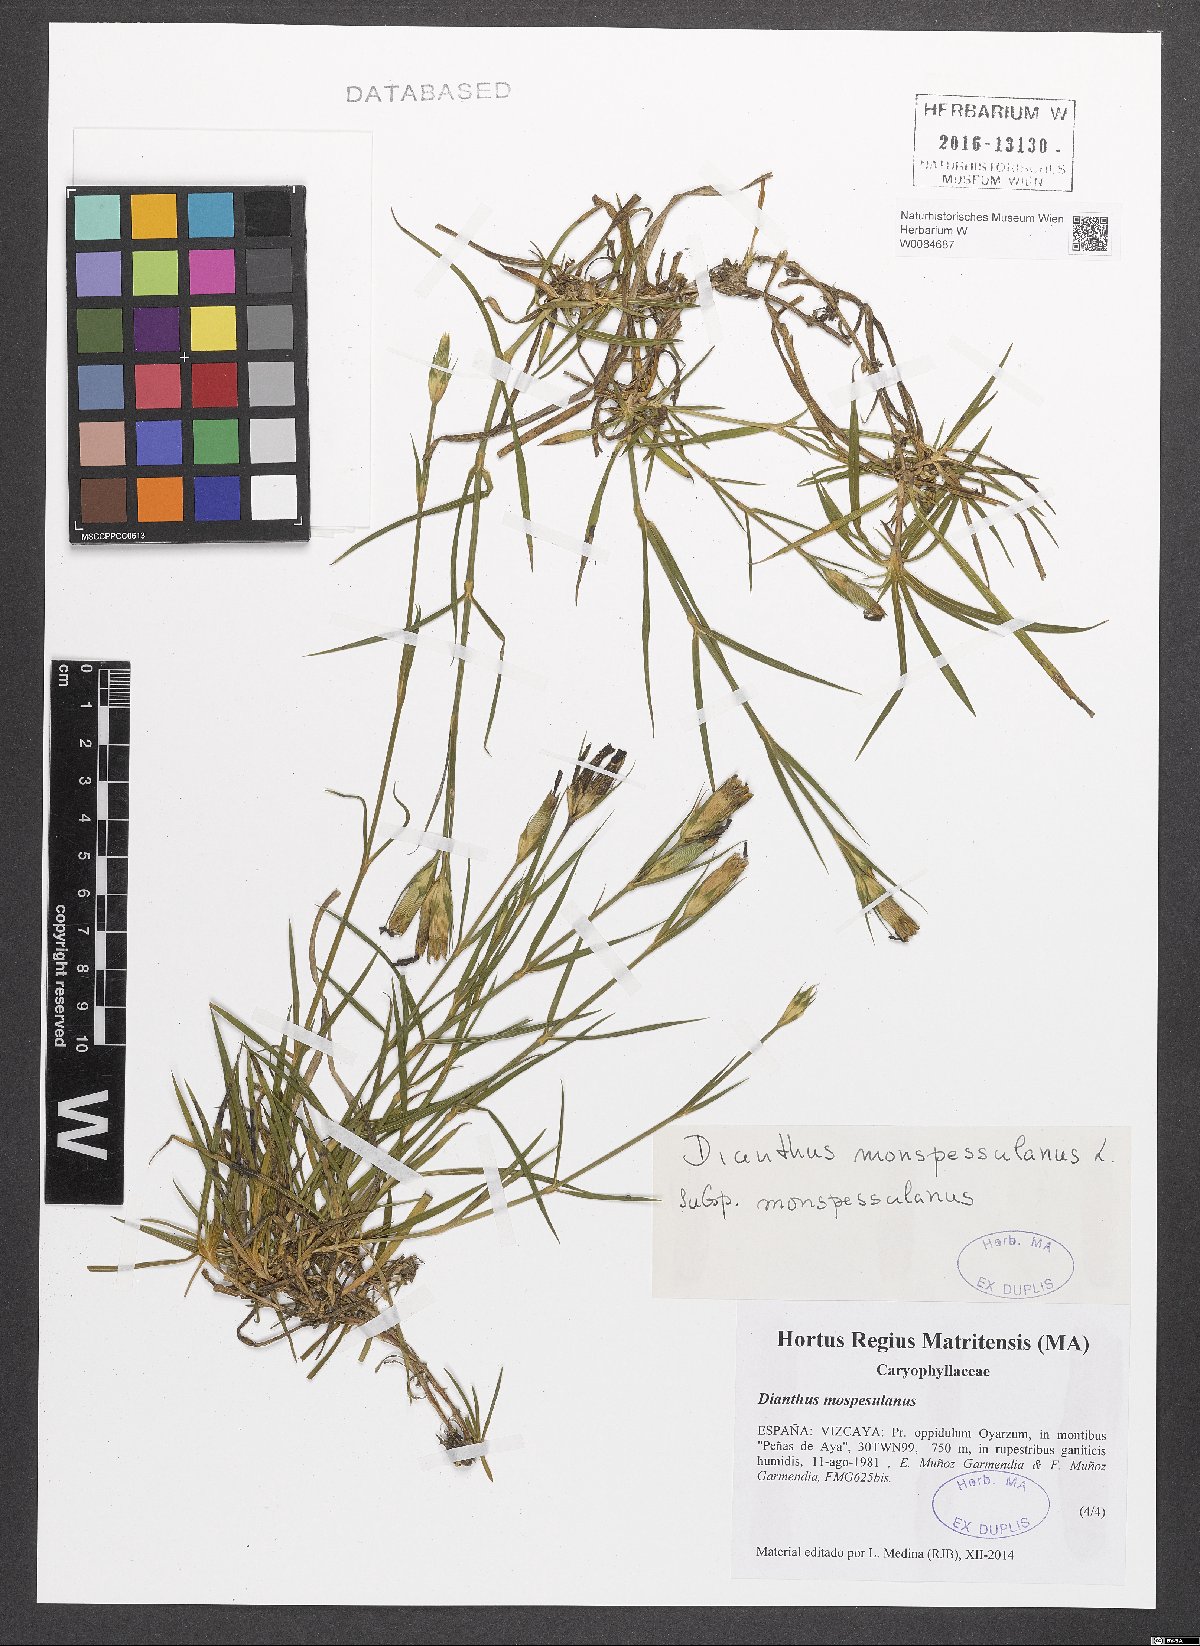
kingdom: Plantae
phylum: Tracheophyta
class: Magnoliopsida
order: Caryophyllales
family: Caryophyllaceae
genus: Dianthus
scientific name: Dianthus hyssopifolius
